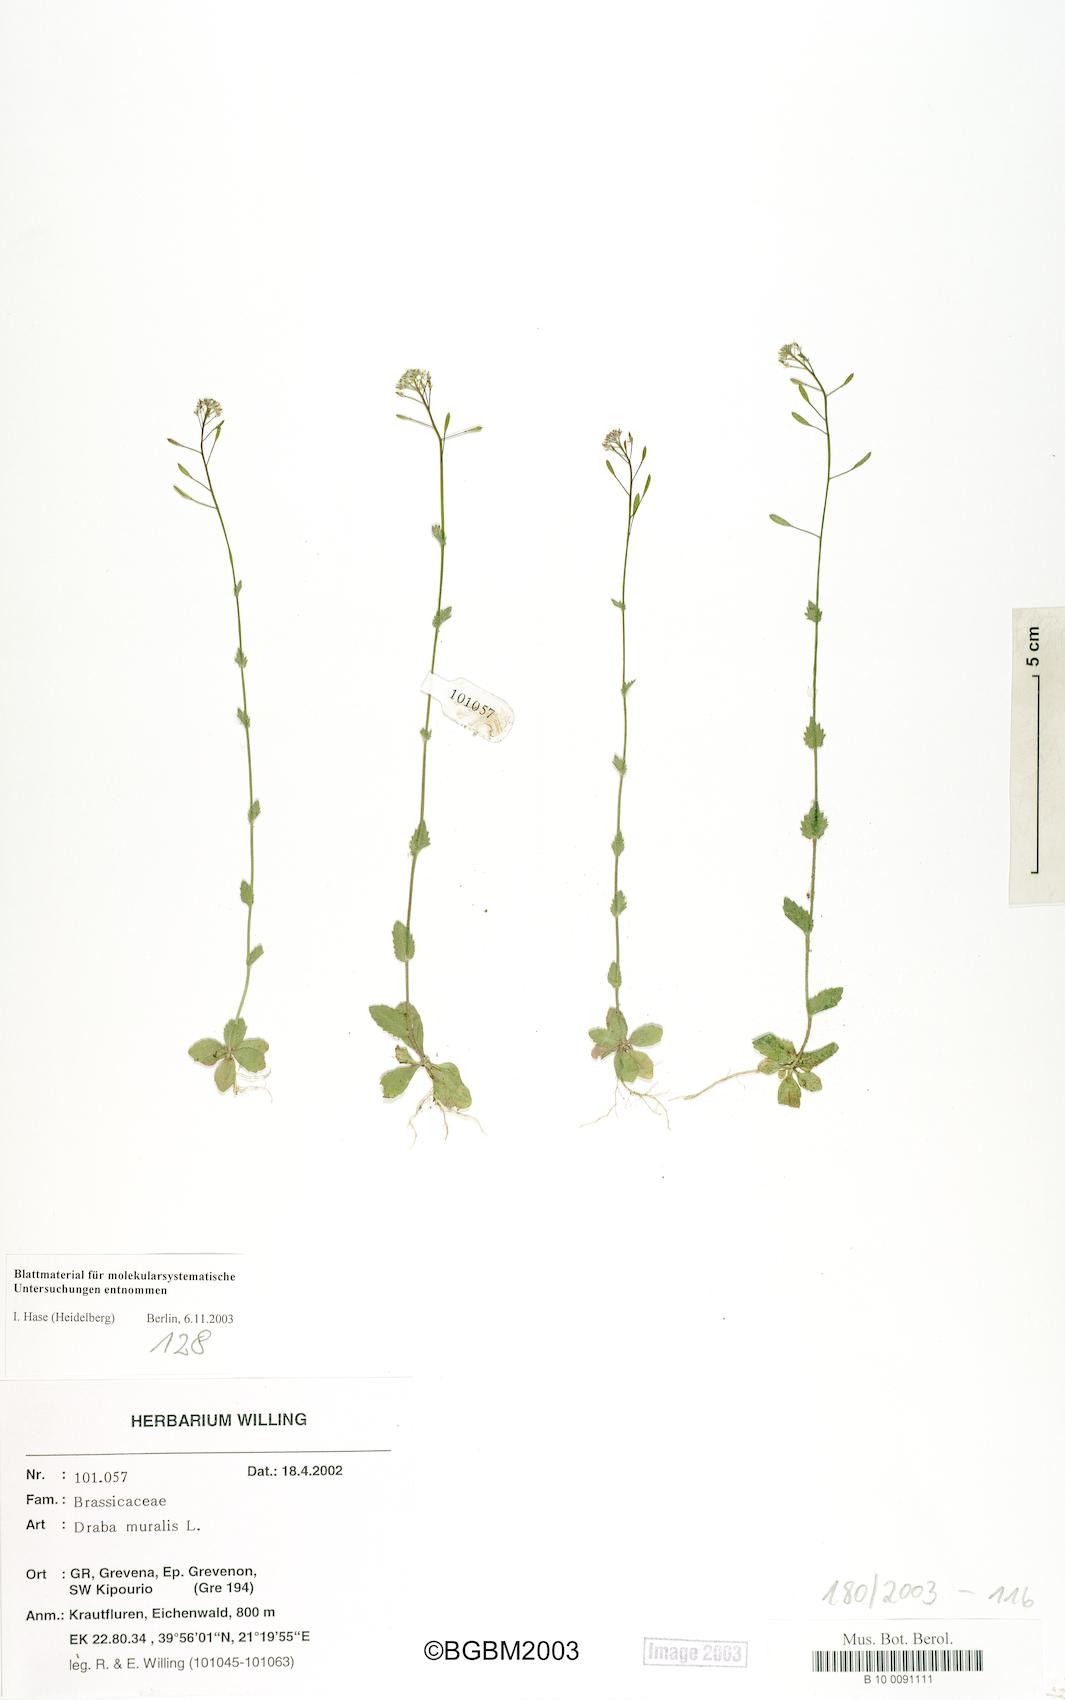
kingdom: Plantae
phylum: Tracheophyta
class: Magnoliopsida
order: Brassicales
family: Brassicaceae
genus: Drabella
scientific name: Drabella muralis
